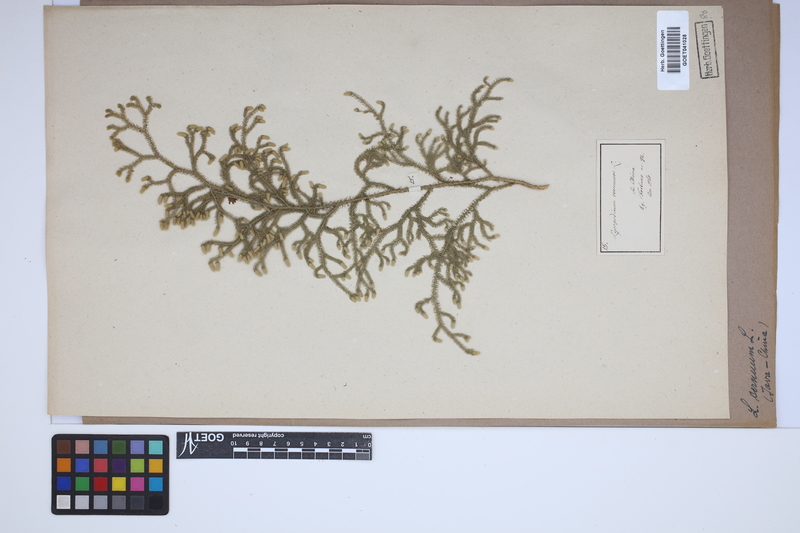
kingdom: Plantae
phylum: Tracheophyta
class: Lycopodiopsida
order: Lycopodiales
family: Lycopodiaceae
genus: Palhinhaea
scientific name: Palhinhaea cernua
